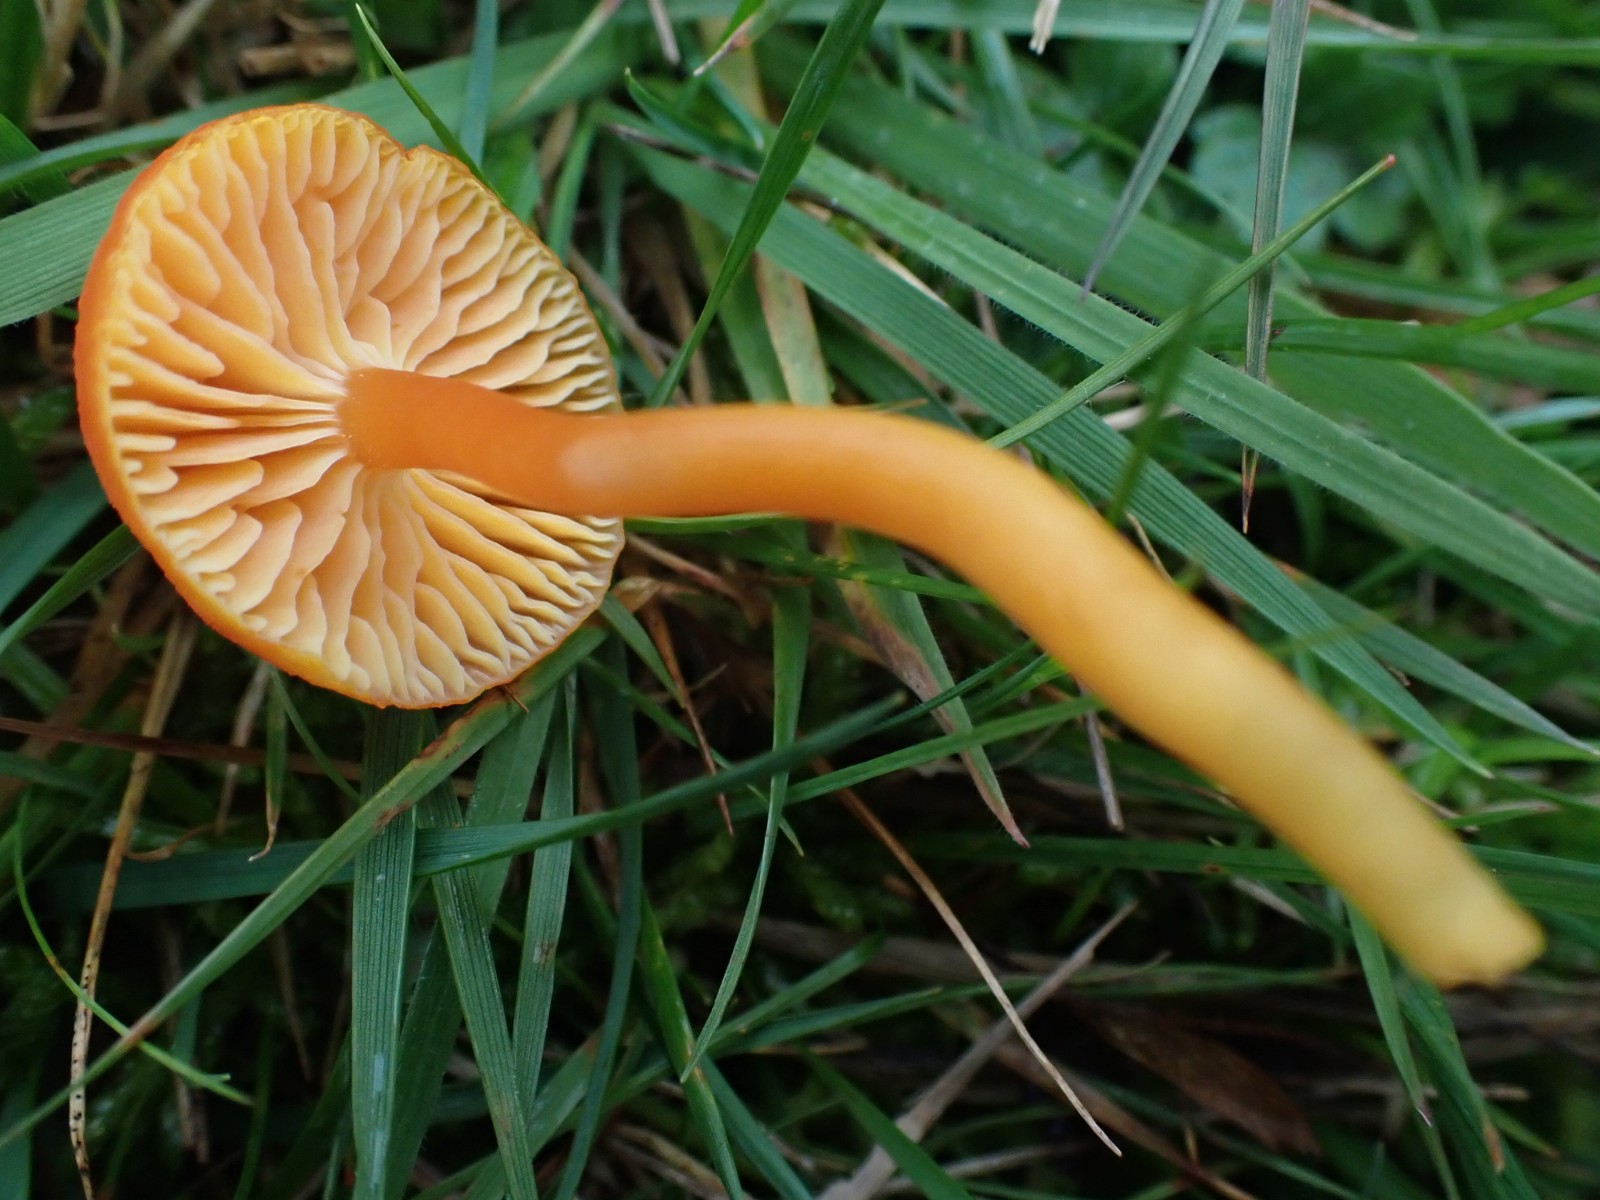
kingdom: Fungi
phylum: Basidiomycota
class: Agaricomycetes
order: Agaricales
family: Hygrophoraceae
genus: Hygrocybe
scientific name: Hygrocybe reidii
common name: honning-vokshat
